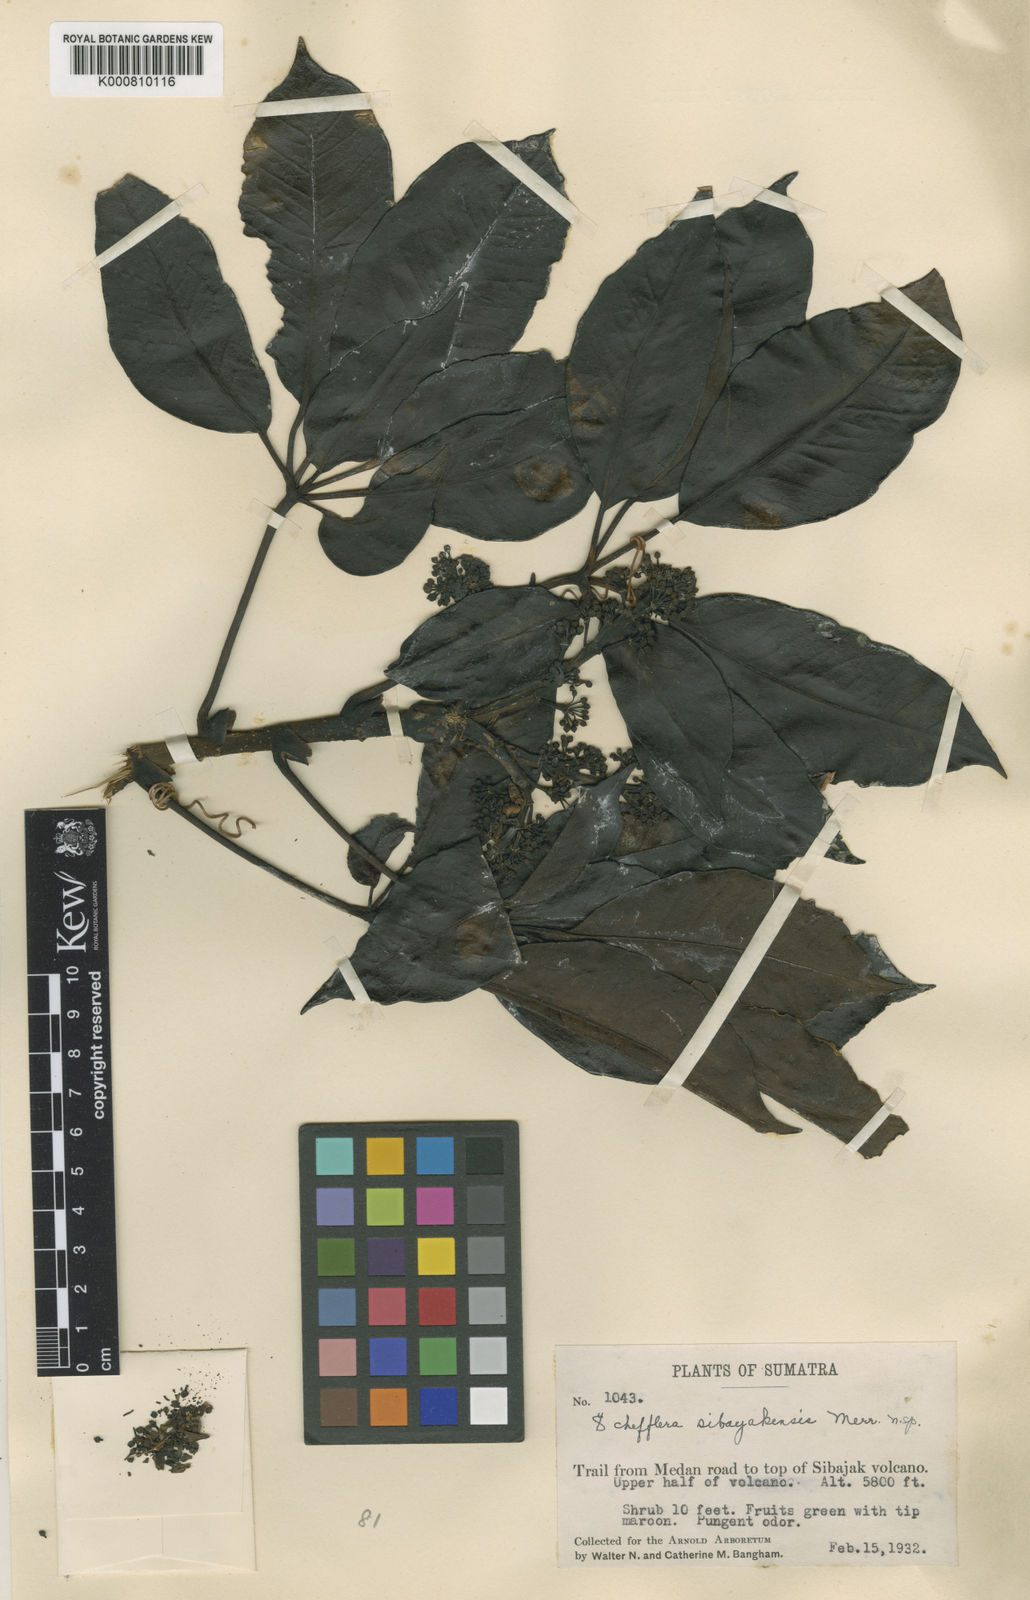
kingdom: Plantae
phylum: Tracheophyta
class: Magnoliopsida
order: Apiales
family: Araliaceae
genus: Heptapleurum
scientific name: Heptapleurum sibayakense
